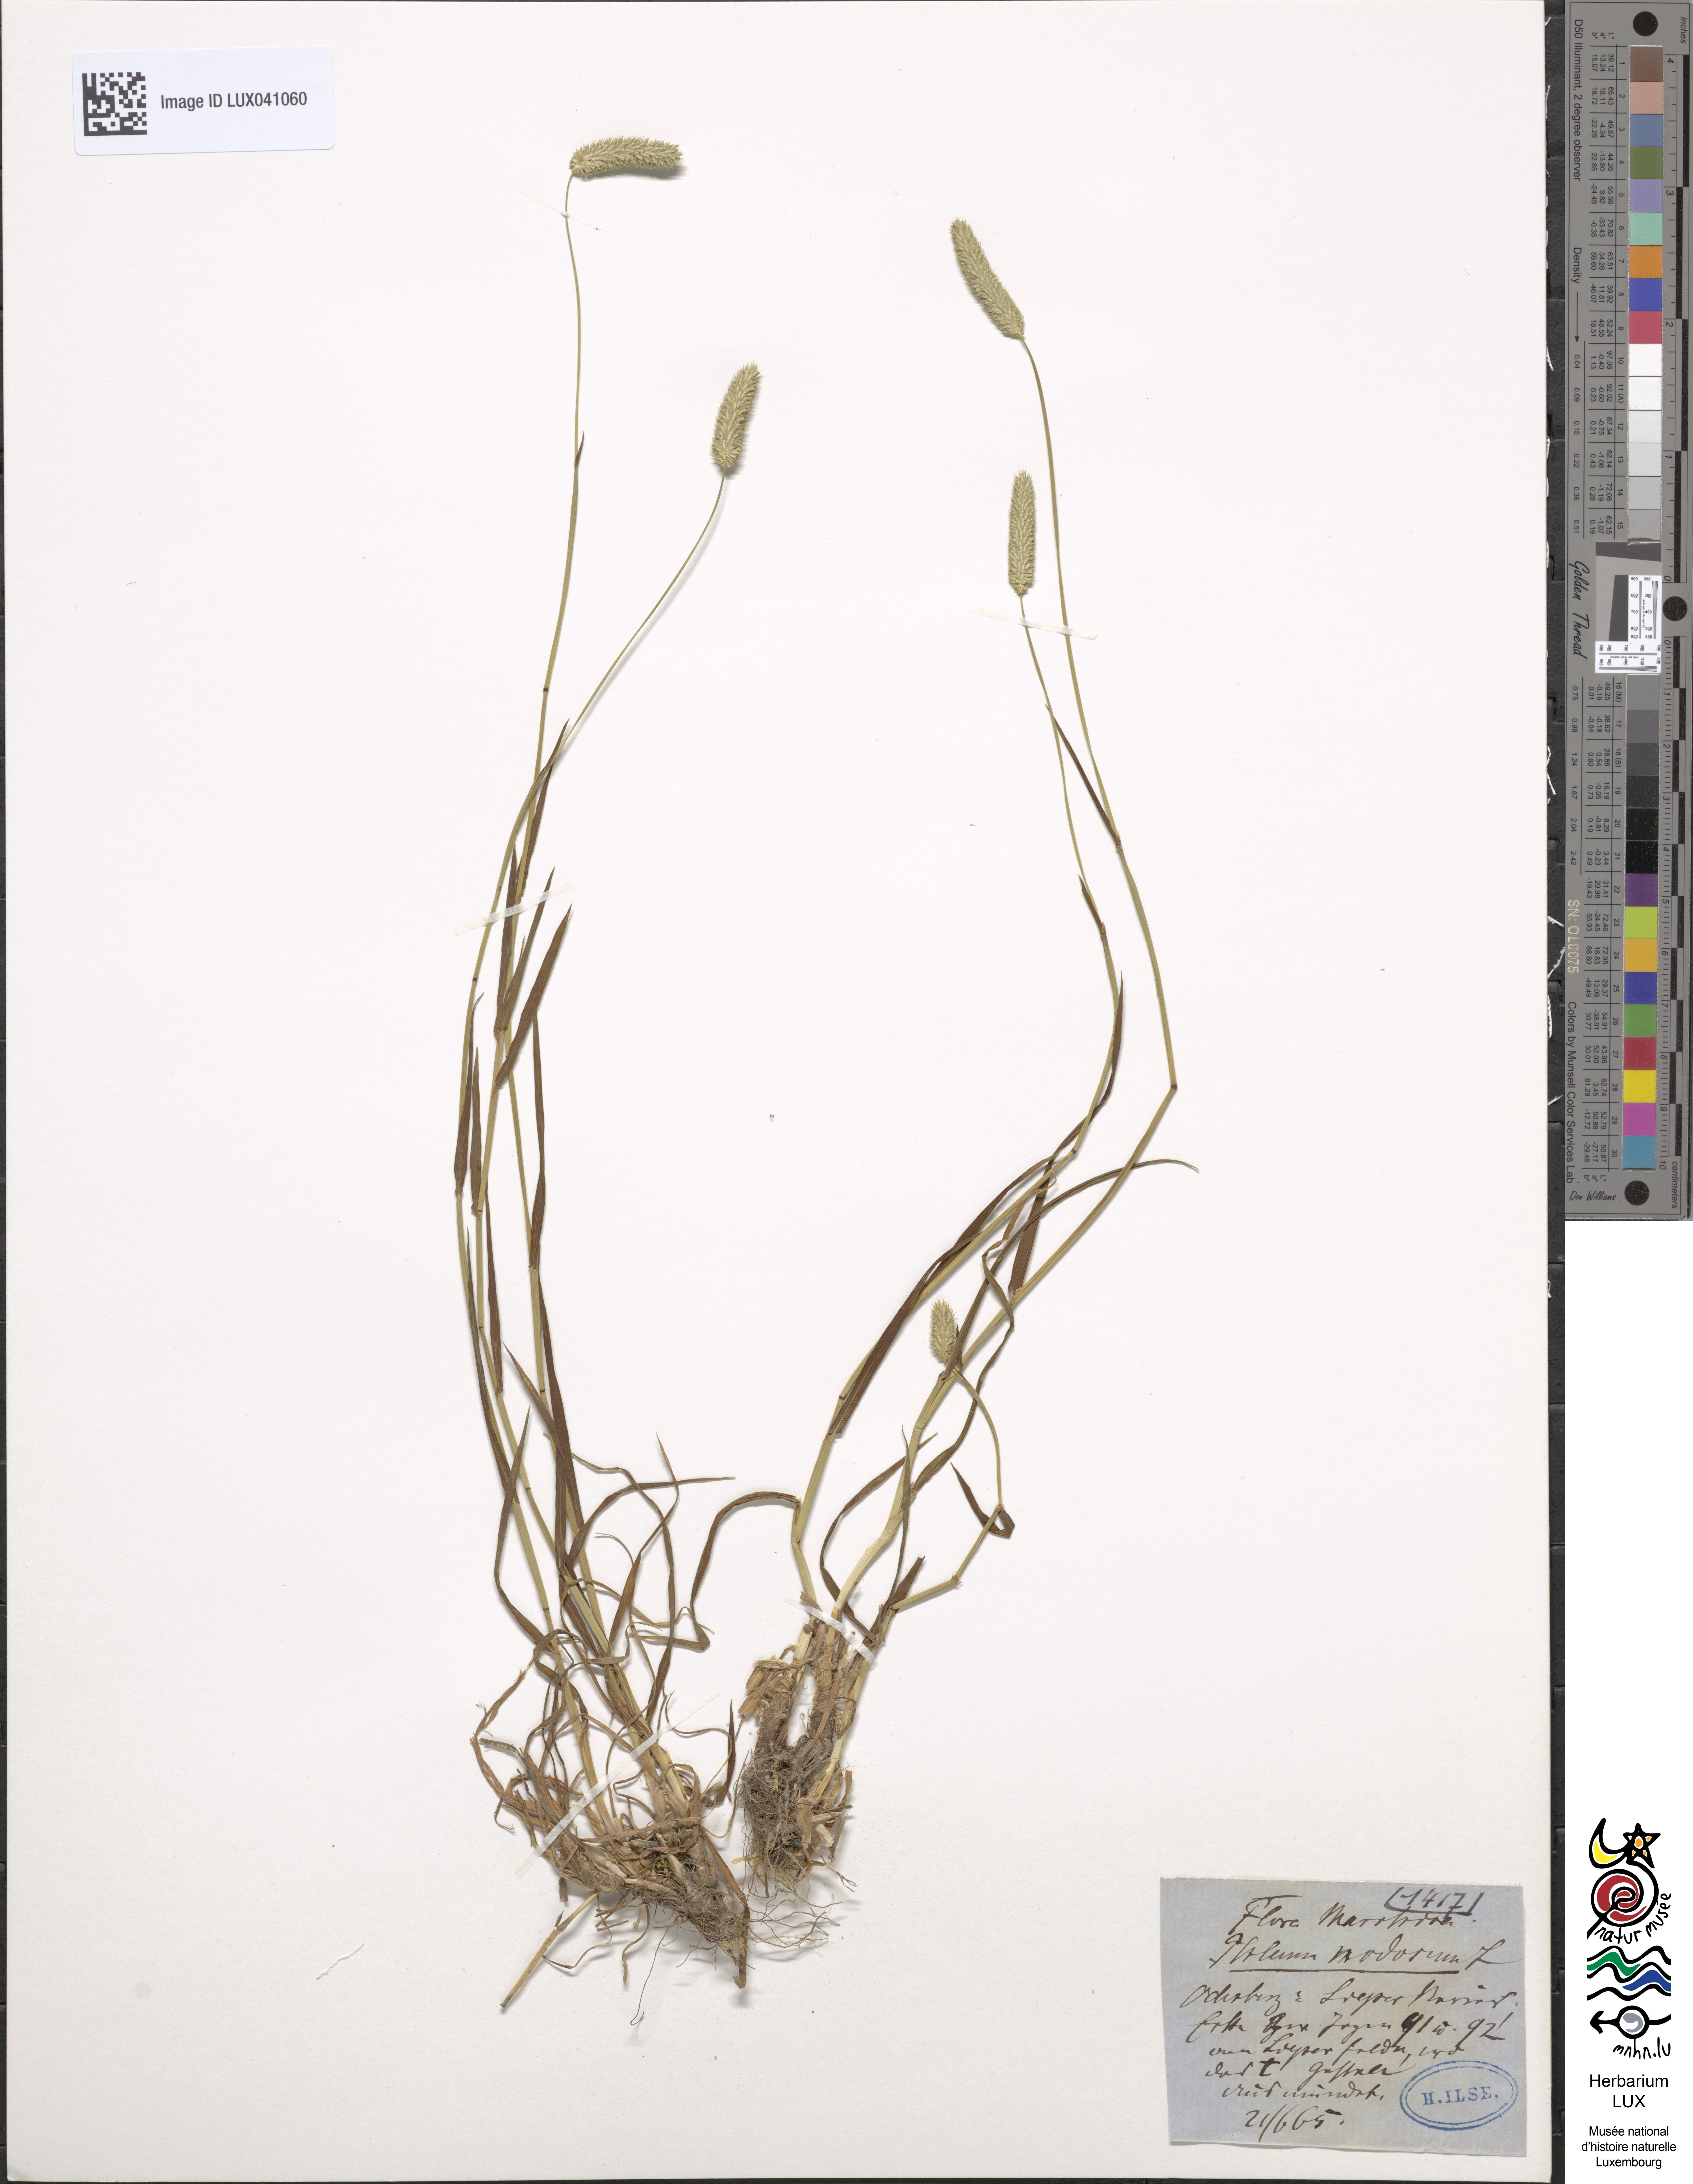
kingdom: Plantae
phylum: Tracheophyta
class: Liliopsida
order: Poales
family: Poaceae
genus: Phleum
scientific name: Phleum pratense
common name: Timothy grass
